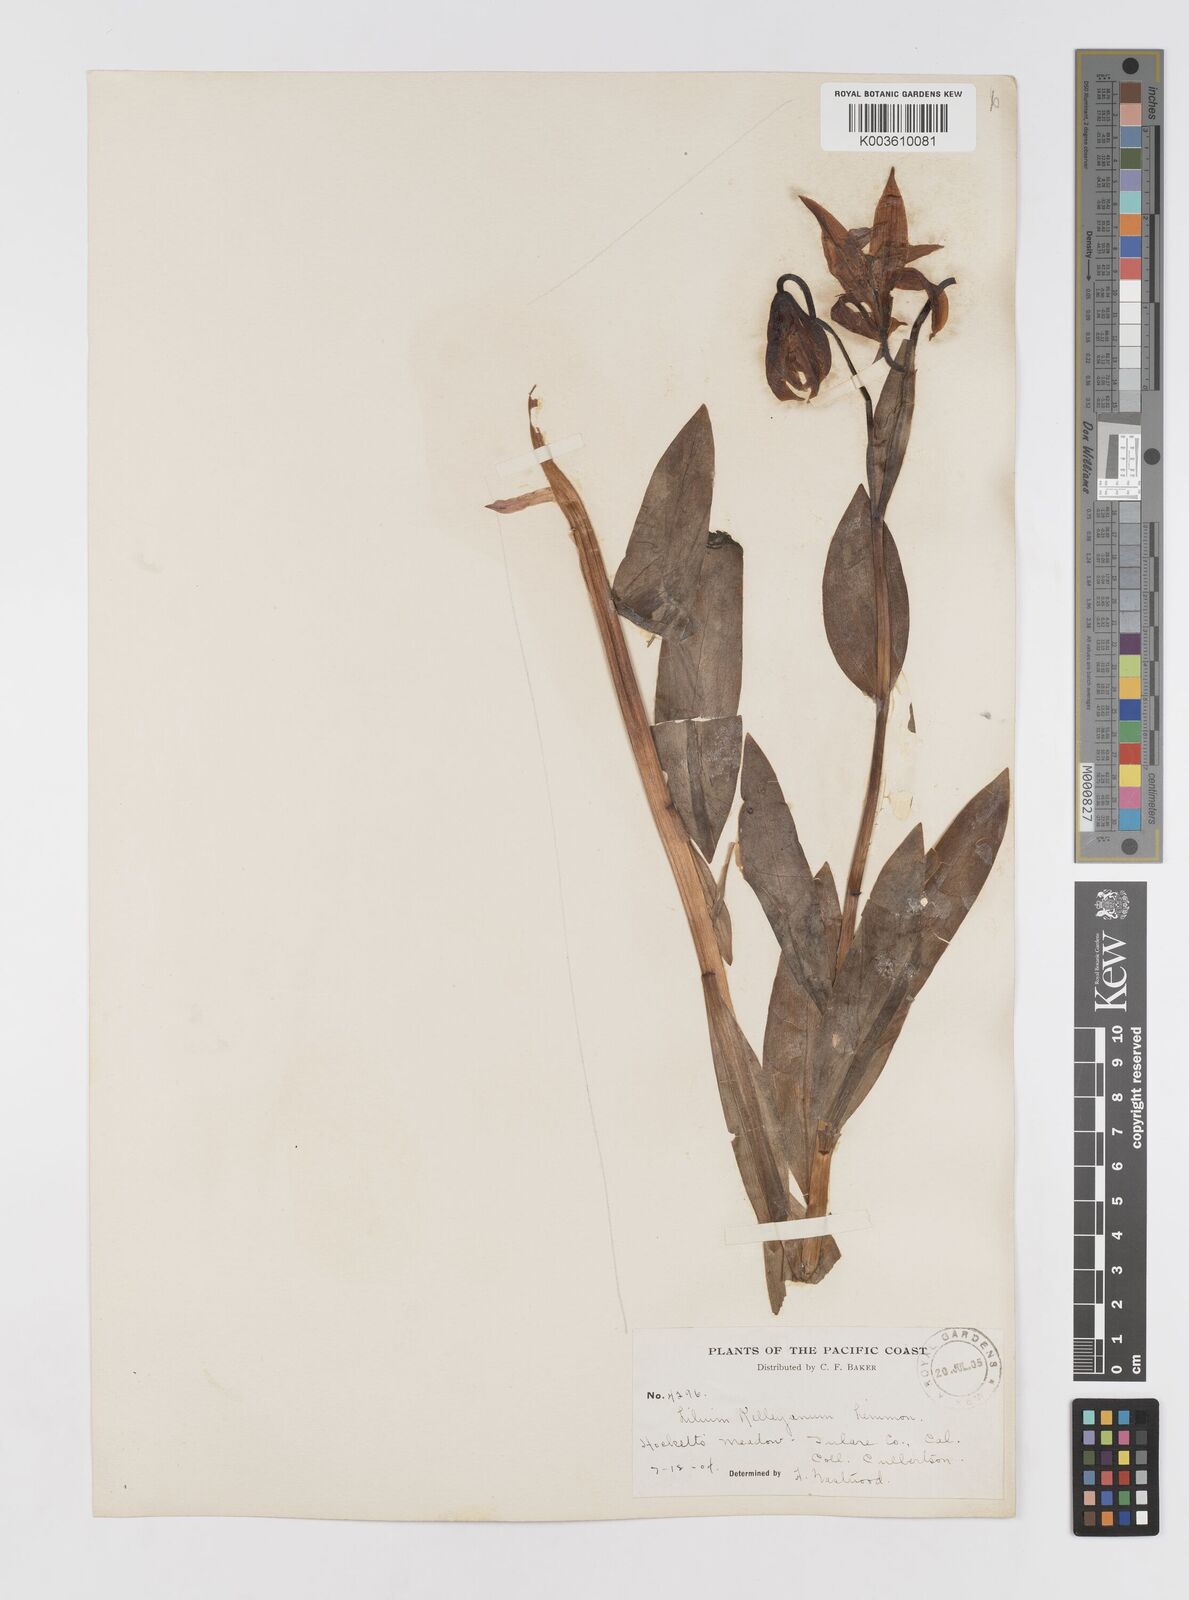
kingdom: Plantae
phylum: Tracheophyta
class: Liliopsida
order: Liliales
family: Liliaceae
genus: Lilium
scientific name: Lilium kelleyanum
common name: Kelley's lily
